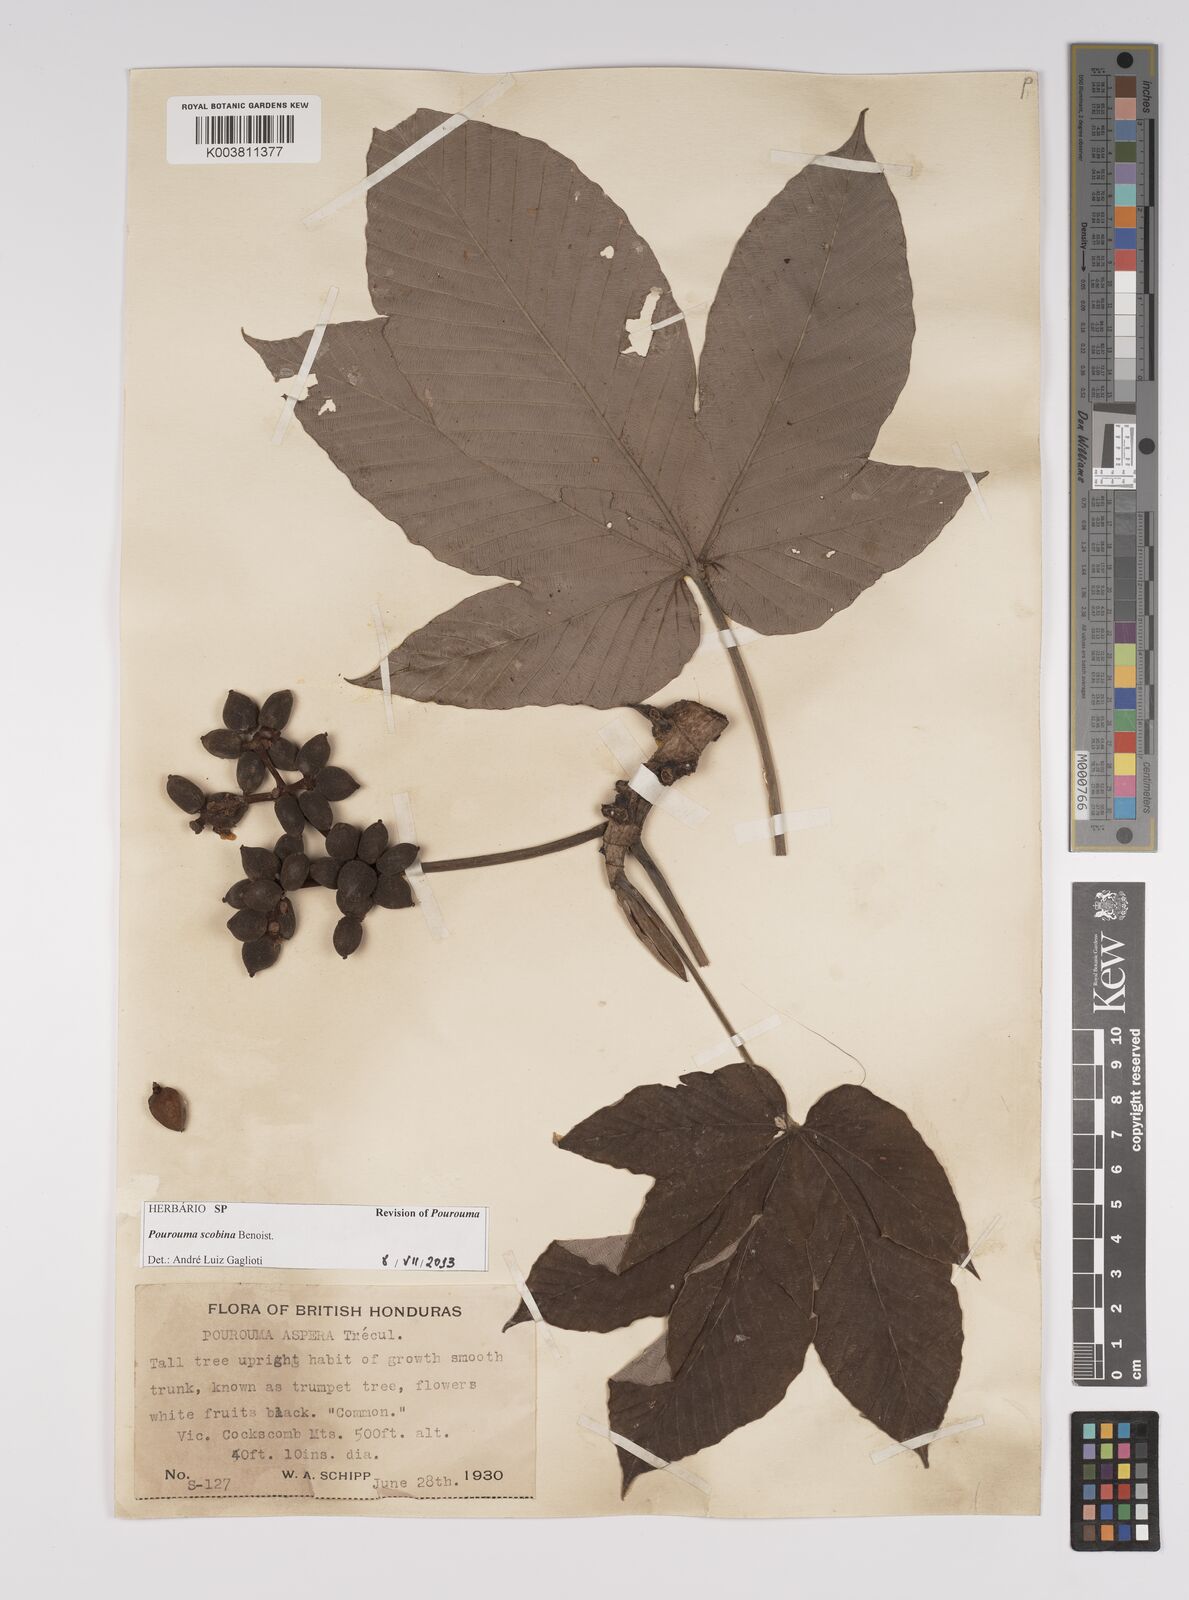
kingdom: Plantae
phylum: Tracheophyta
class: Magnoliopsida
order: Rosales
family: Urticaceae
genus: Pourouma
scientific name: Pourouma bicolor
